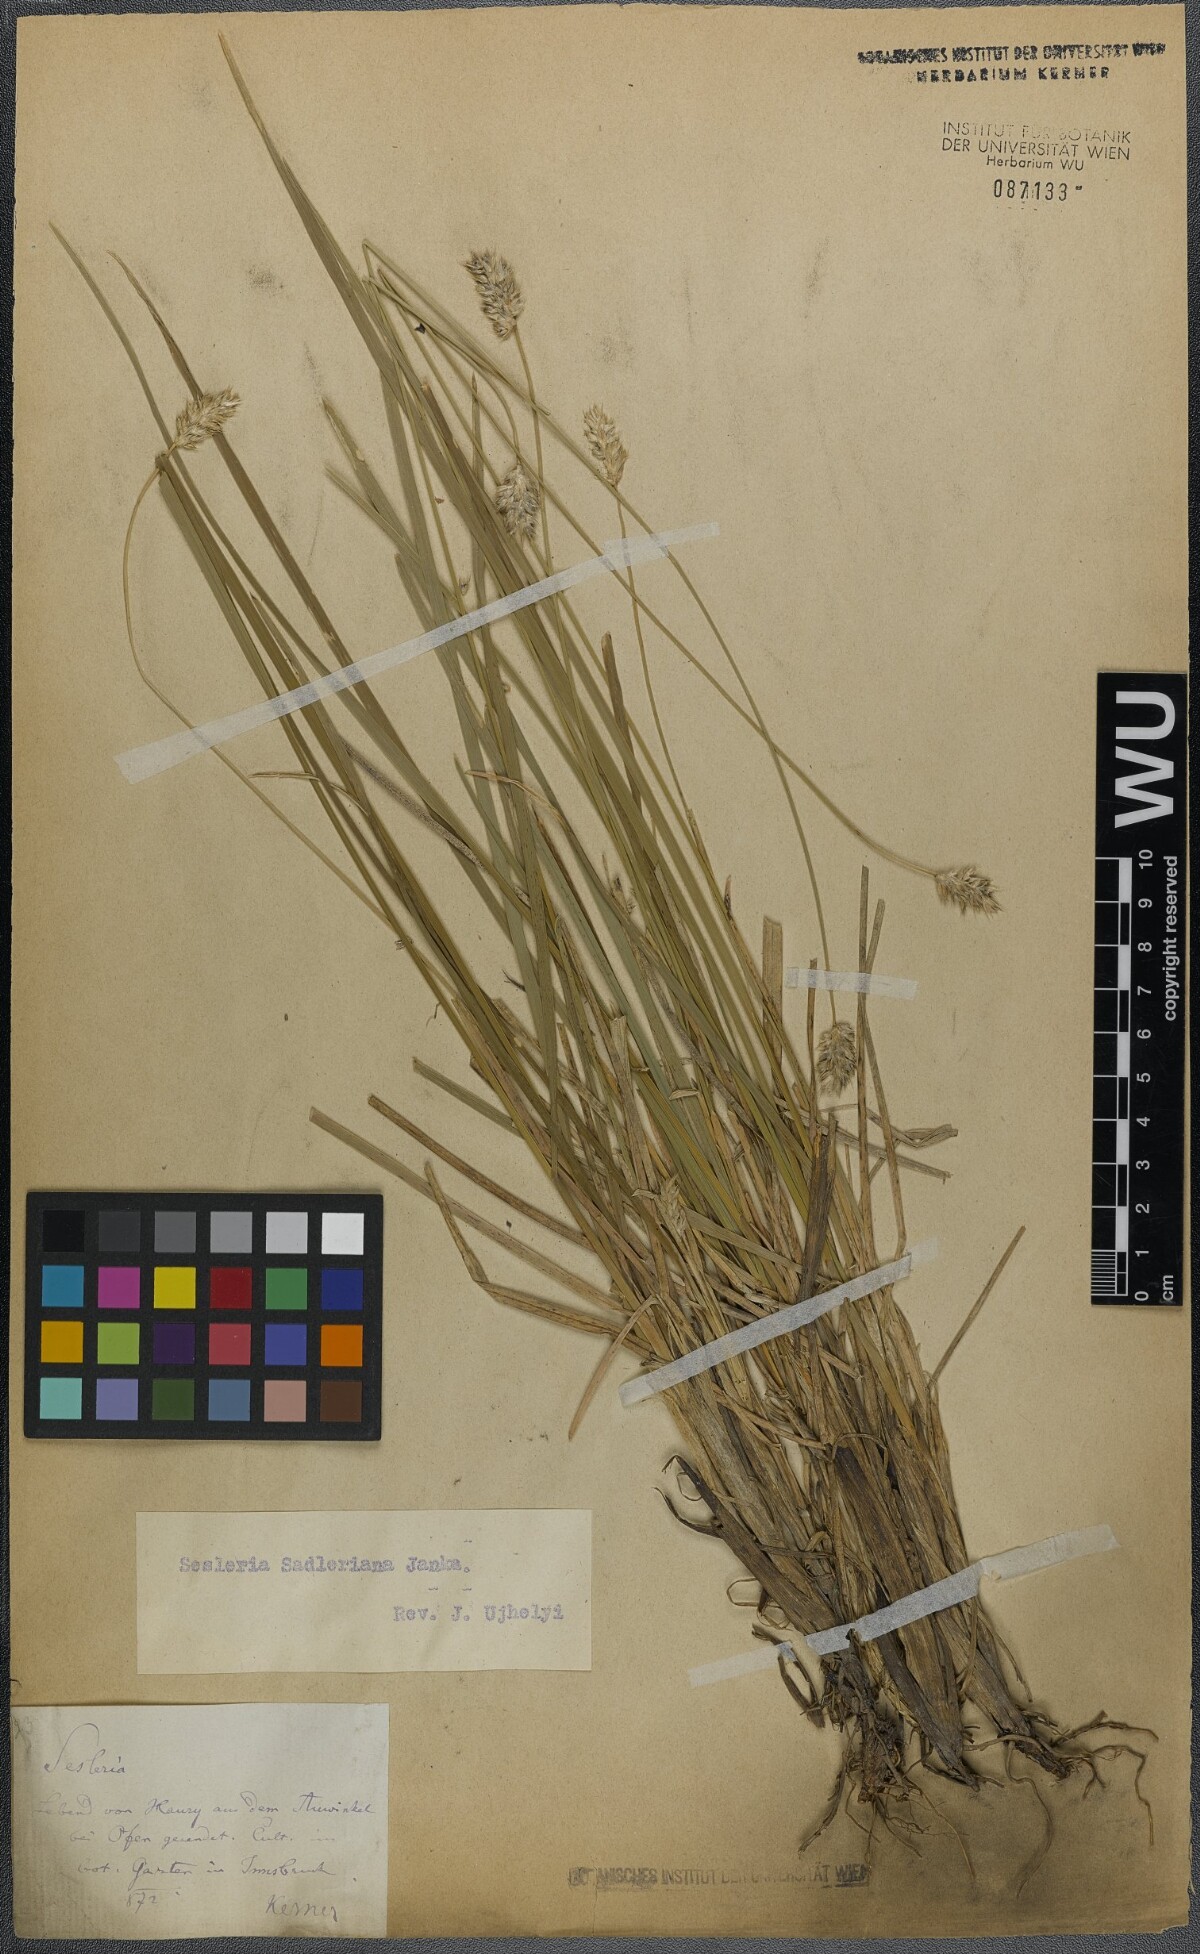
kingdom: Plantae
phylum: Tracheophyta
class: Liliopsida
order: Poales
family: Poaceae
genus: Sesleria
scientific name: Sesleria sadleriana
